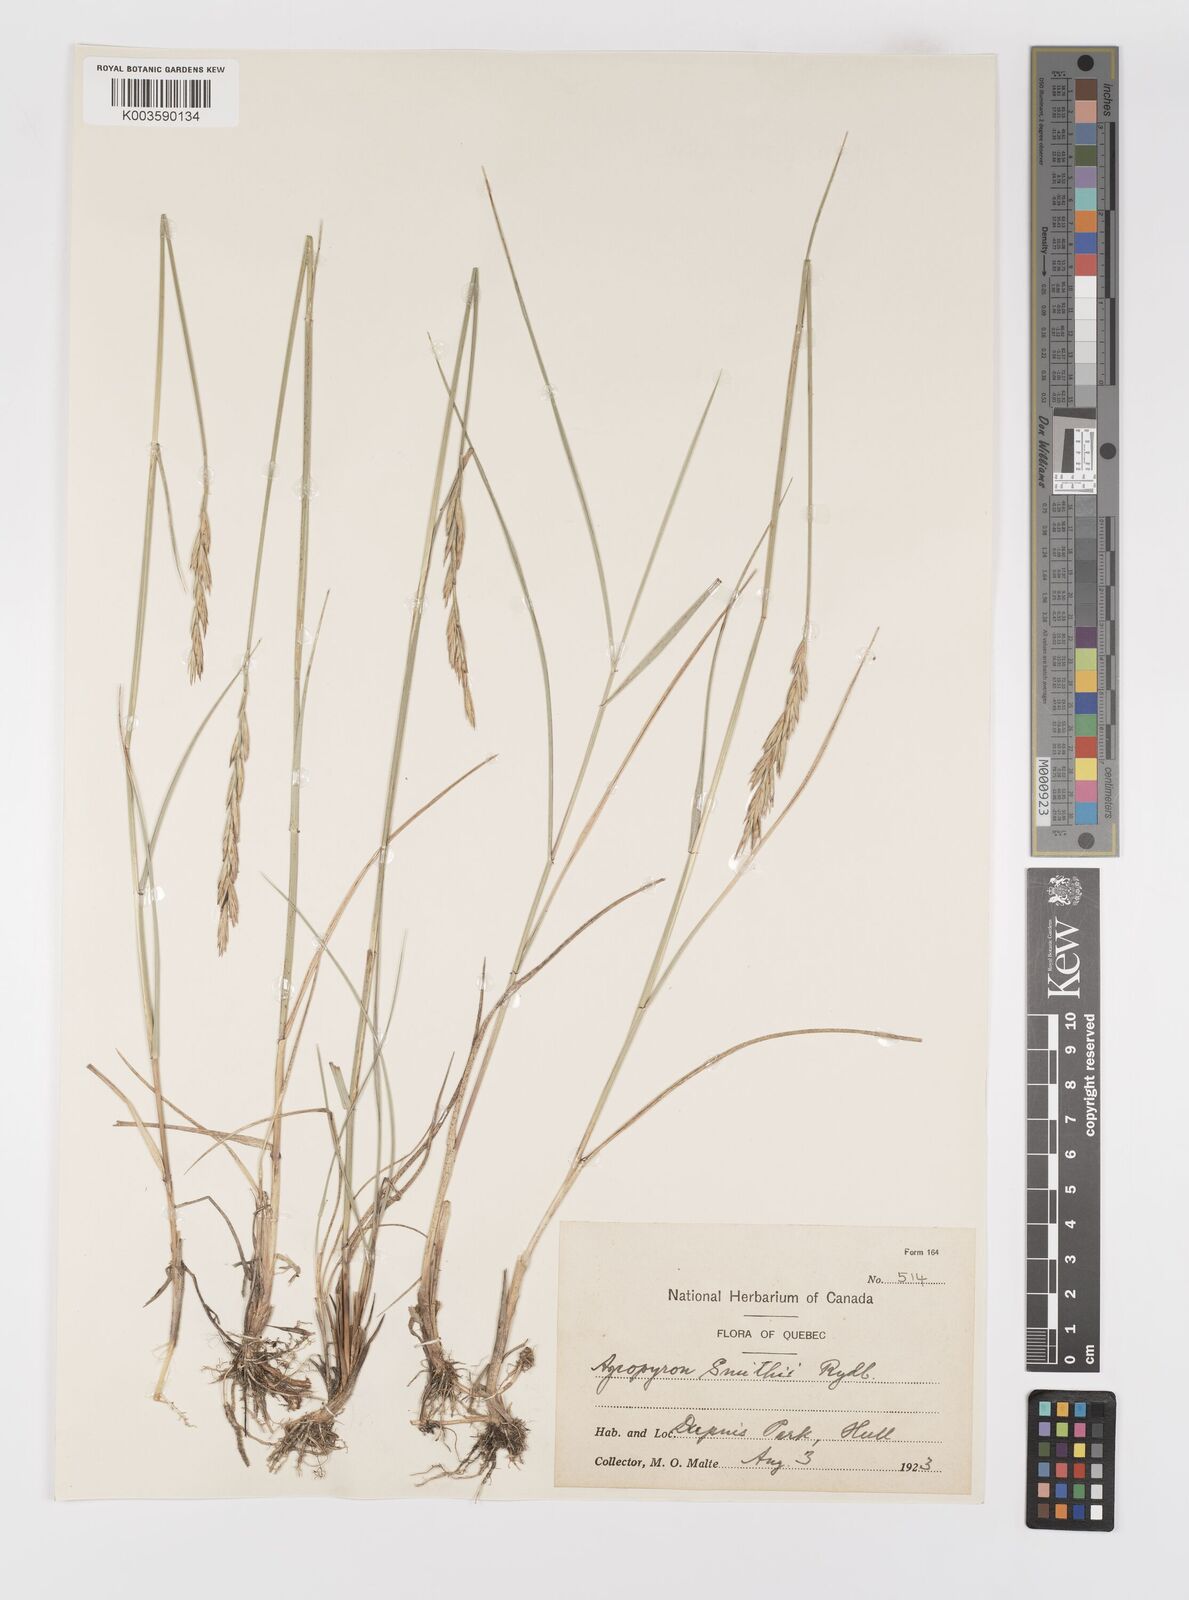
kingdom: Plantae
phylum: Tracheophyta
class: Liliopsida
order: Poales
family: Poaceae
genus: Elymus
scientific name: Elymus smithii
